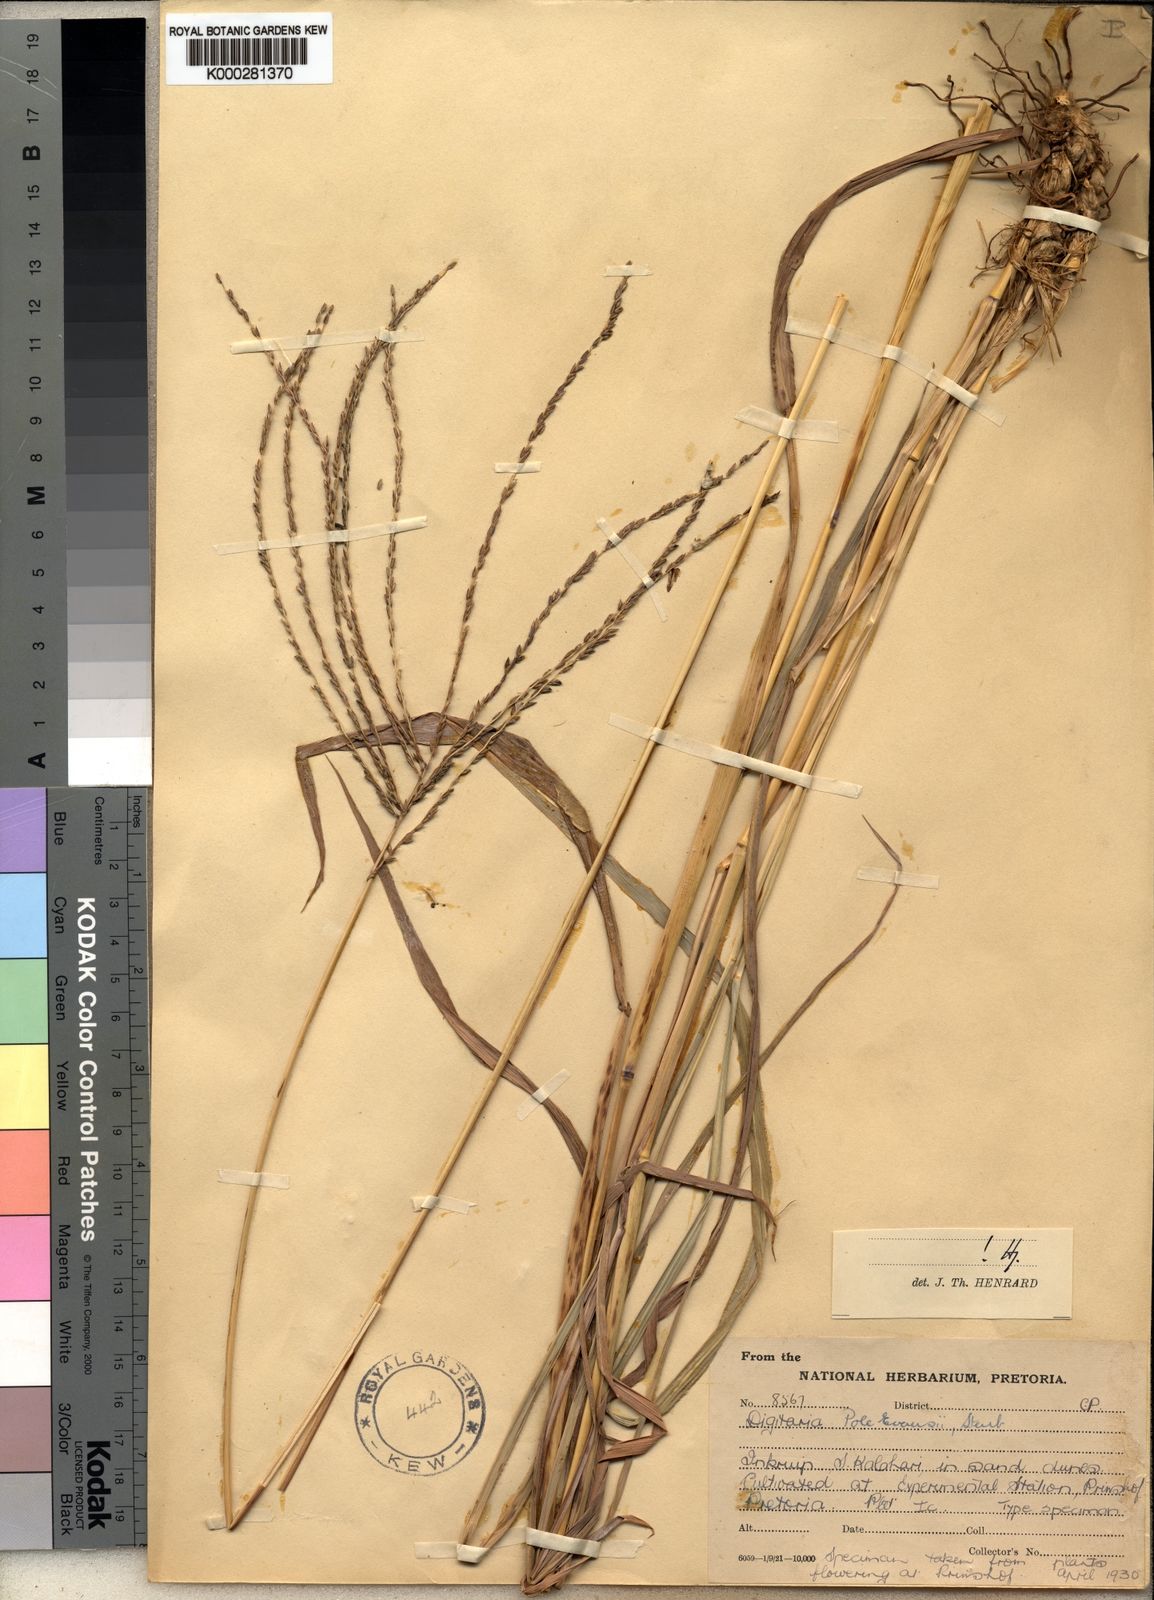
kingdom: Plantae
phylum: Tracheophyta
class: Liliopsida
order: Poales
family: Poaceae
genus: Digitaria
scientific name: Digitaria milanjiana
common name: Madagascar crabgrass
